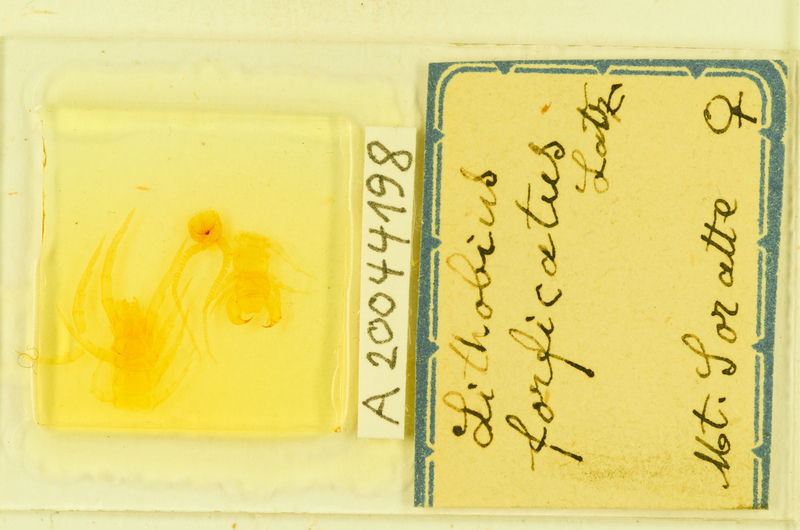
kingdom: Animalia
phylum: Arthropoda
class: Chilopoda
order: Lithobiomorpha
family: Lithobiidae
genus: Lithobius
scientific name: Lithobius forficatus
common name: Centipede
